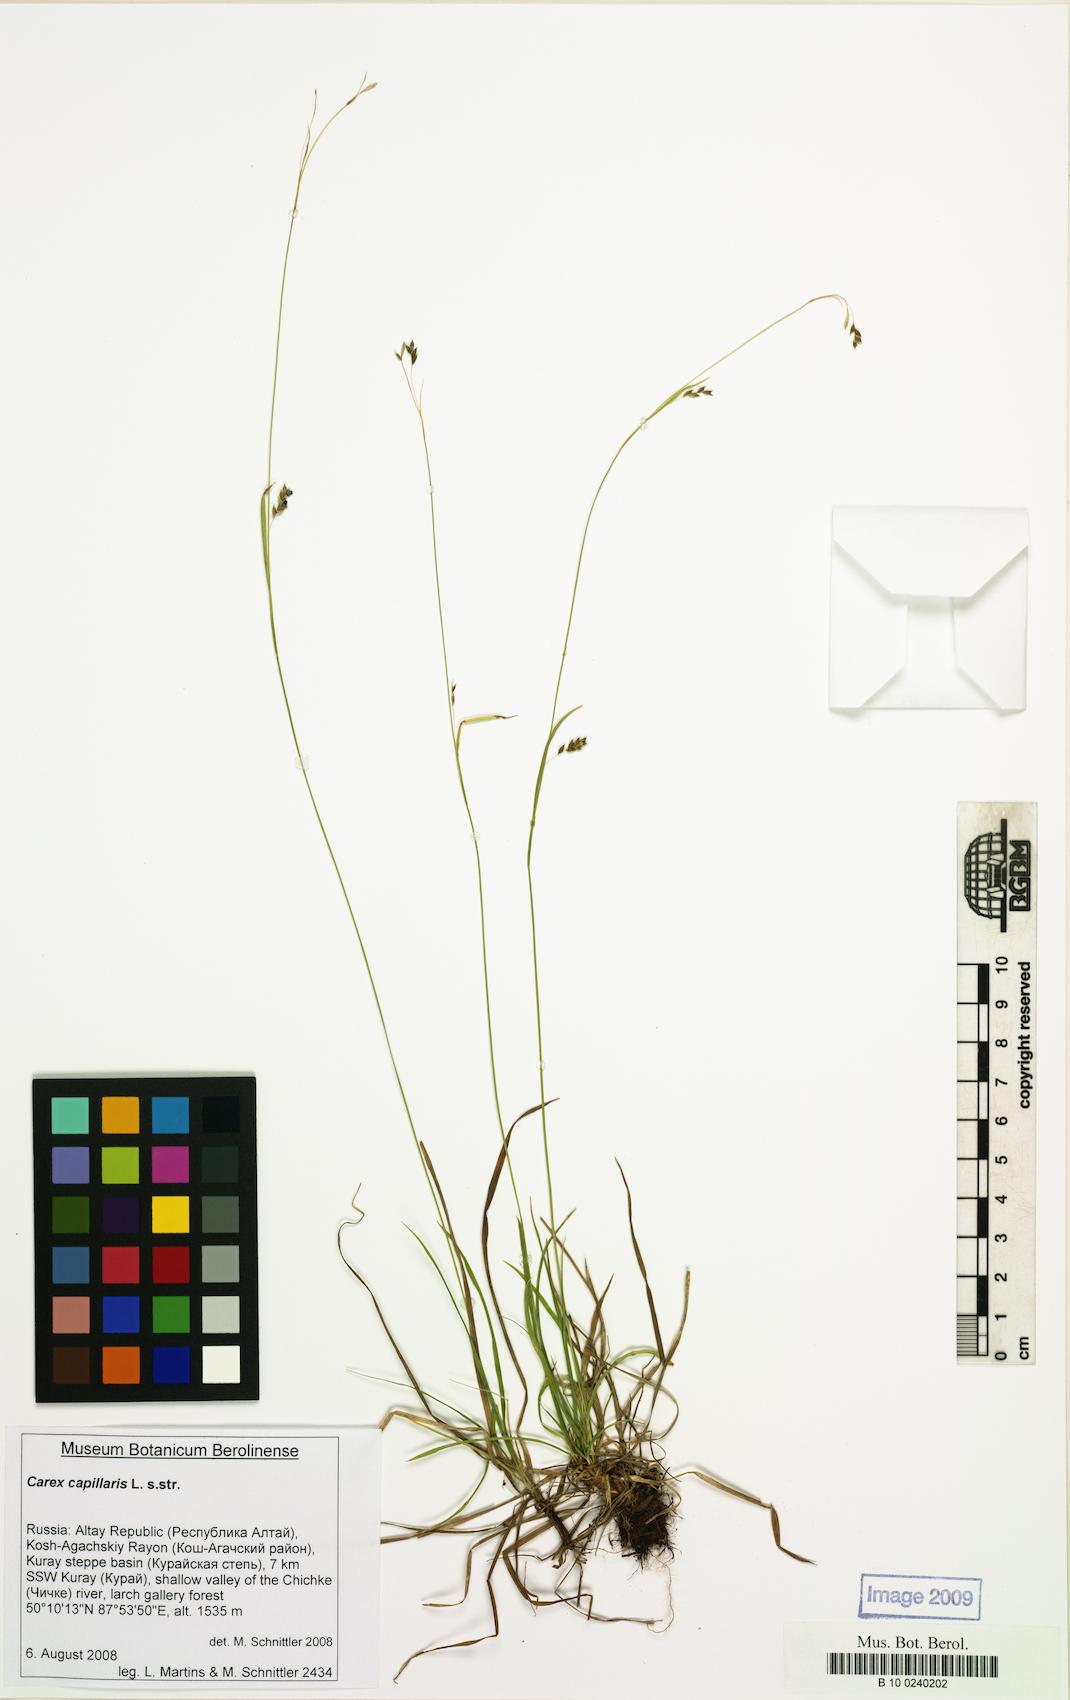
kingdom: Plantae
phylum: Tracheophyta
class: Liliopsida
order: Poales
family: Cyperaceae
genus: Carex
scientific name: Carex capillaris
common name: Hair sedge
